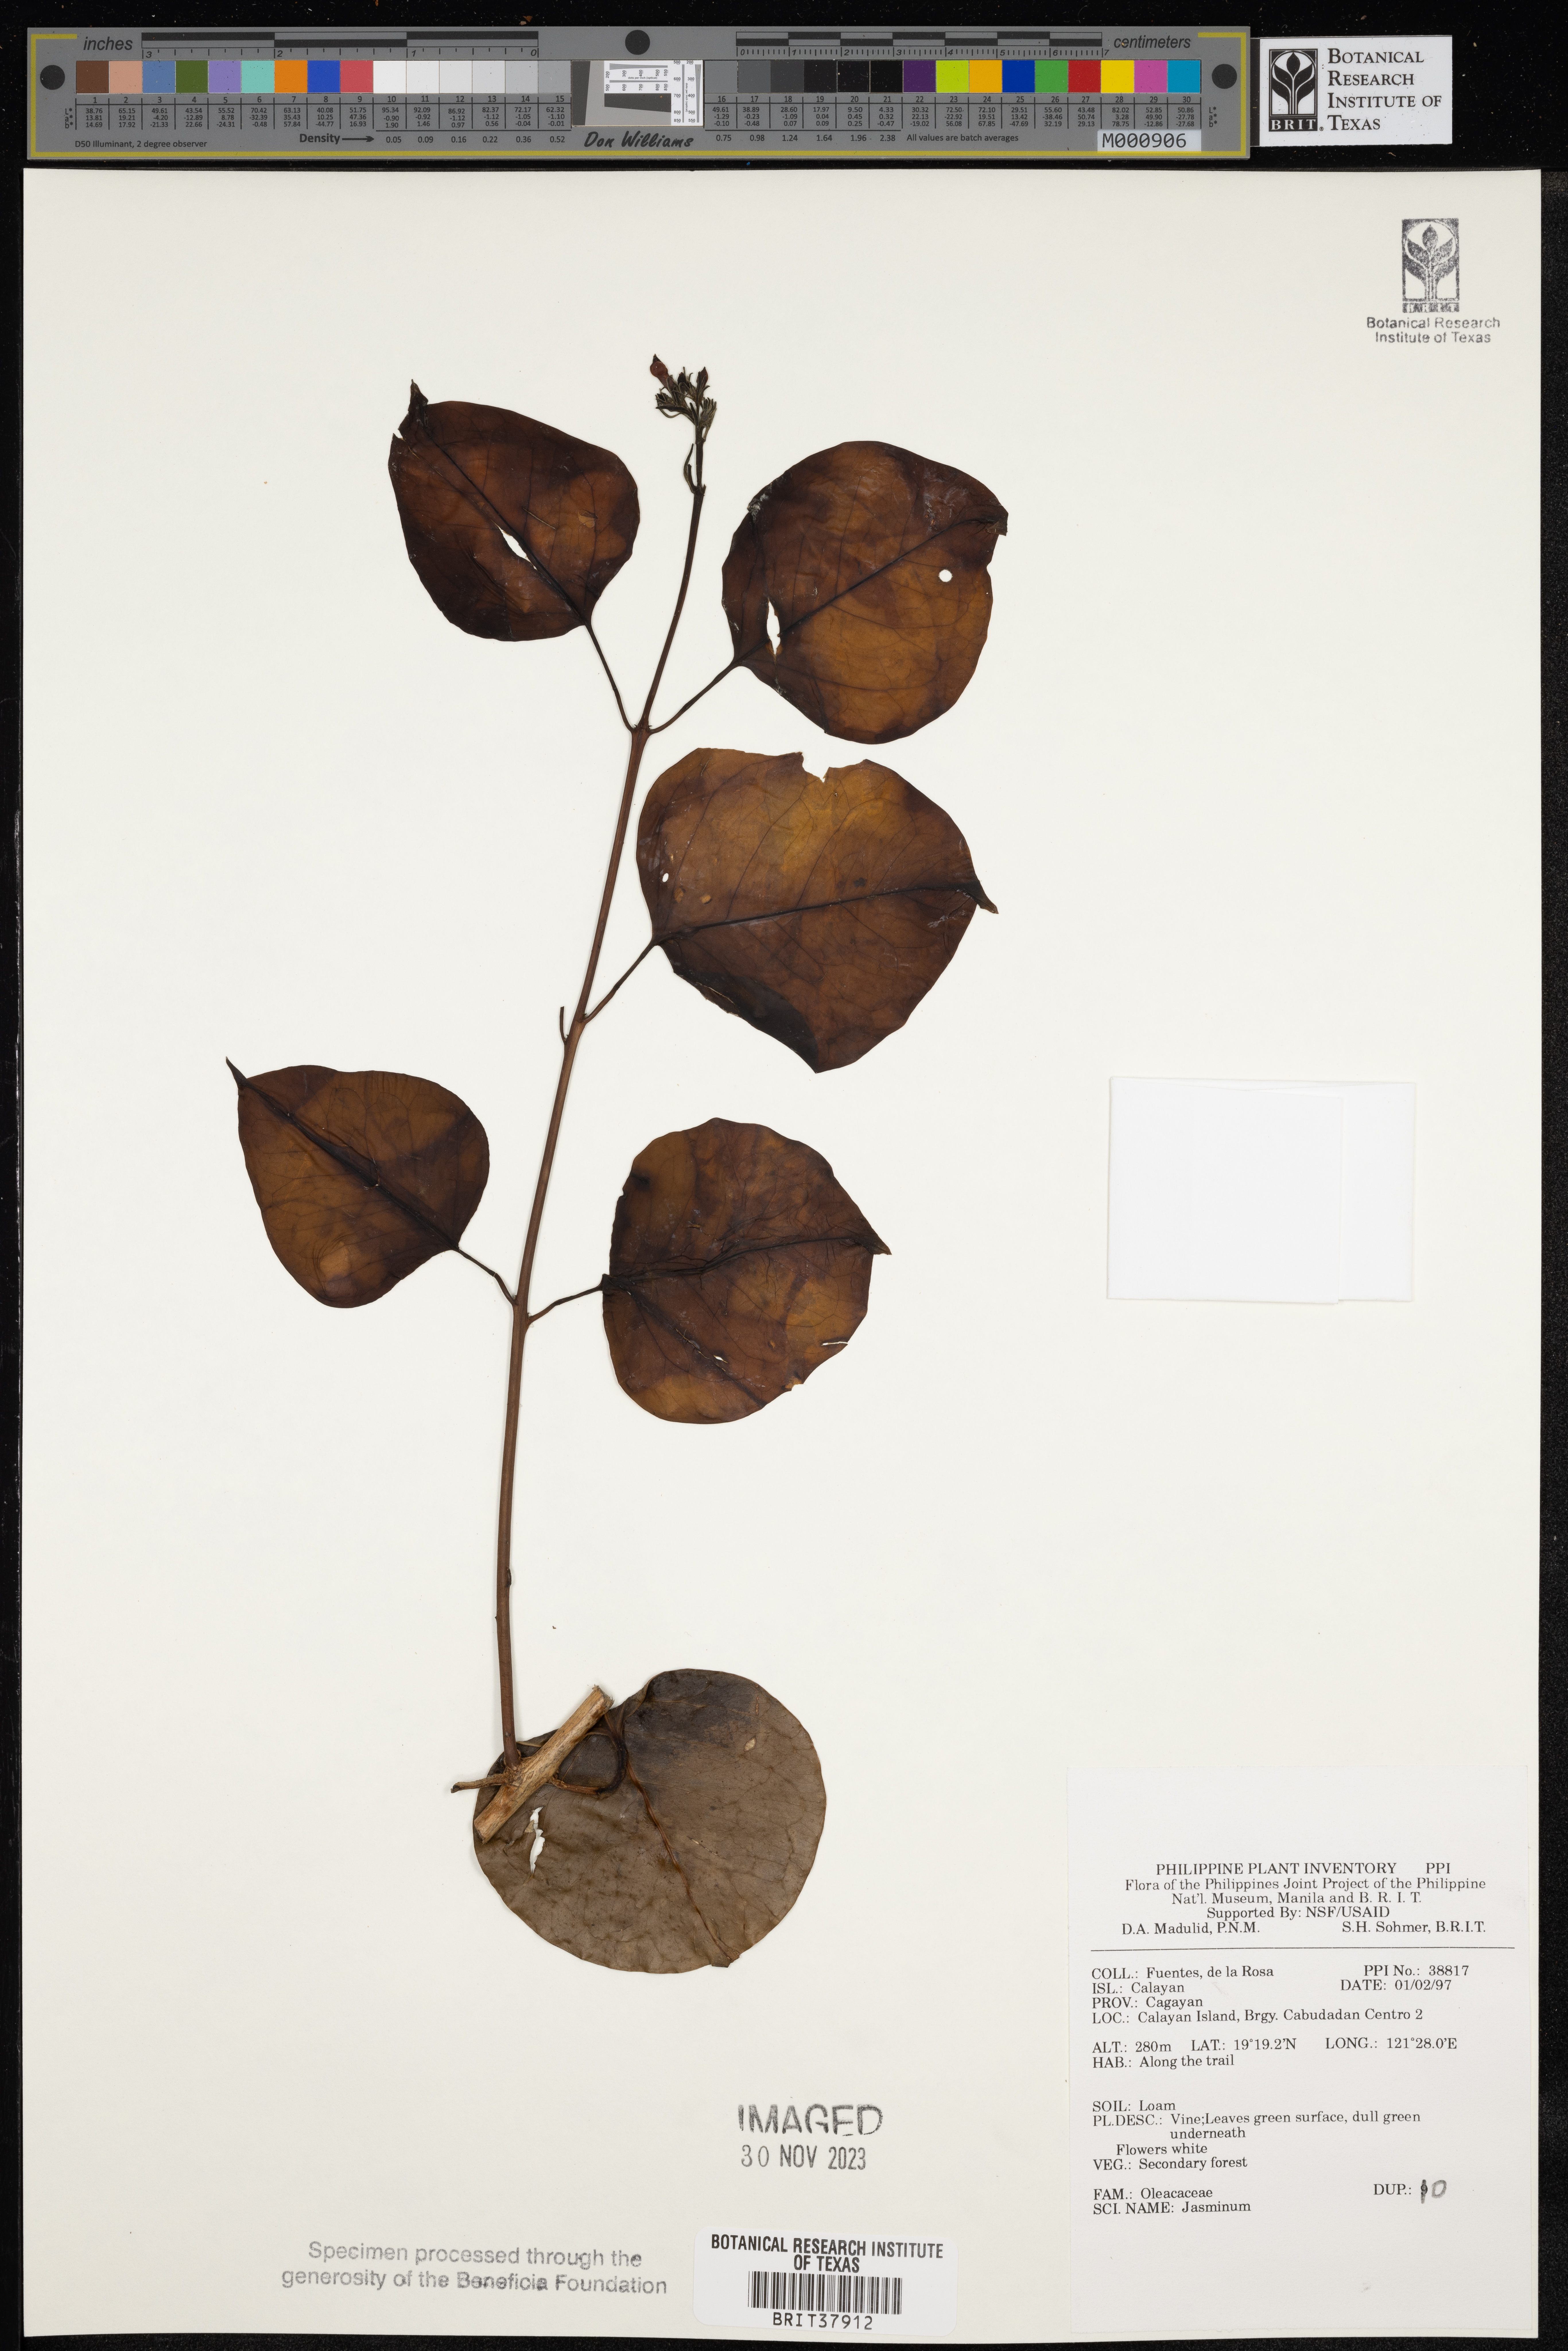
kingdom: Plantae
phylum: Tracheophyta
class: Magnoliopsida
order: Lamiales
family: Oleaceae
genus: Jasminum
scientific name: Jasminum
